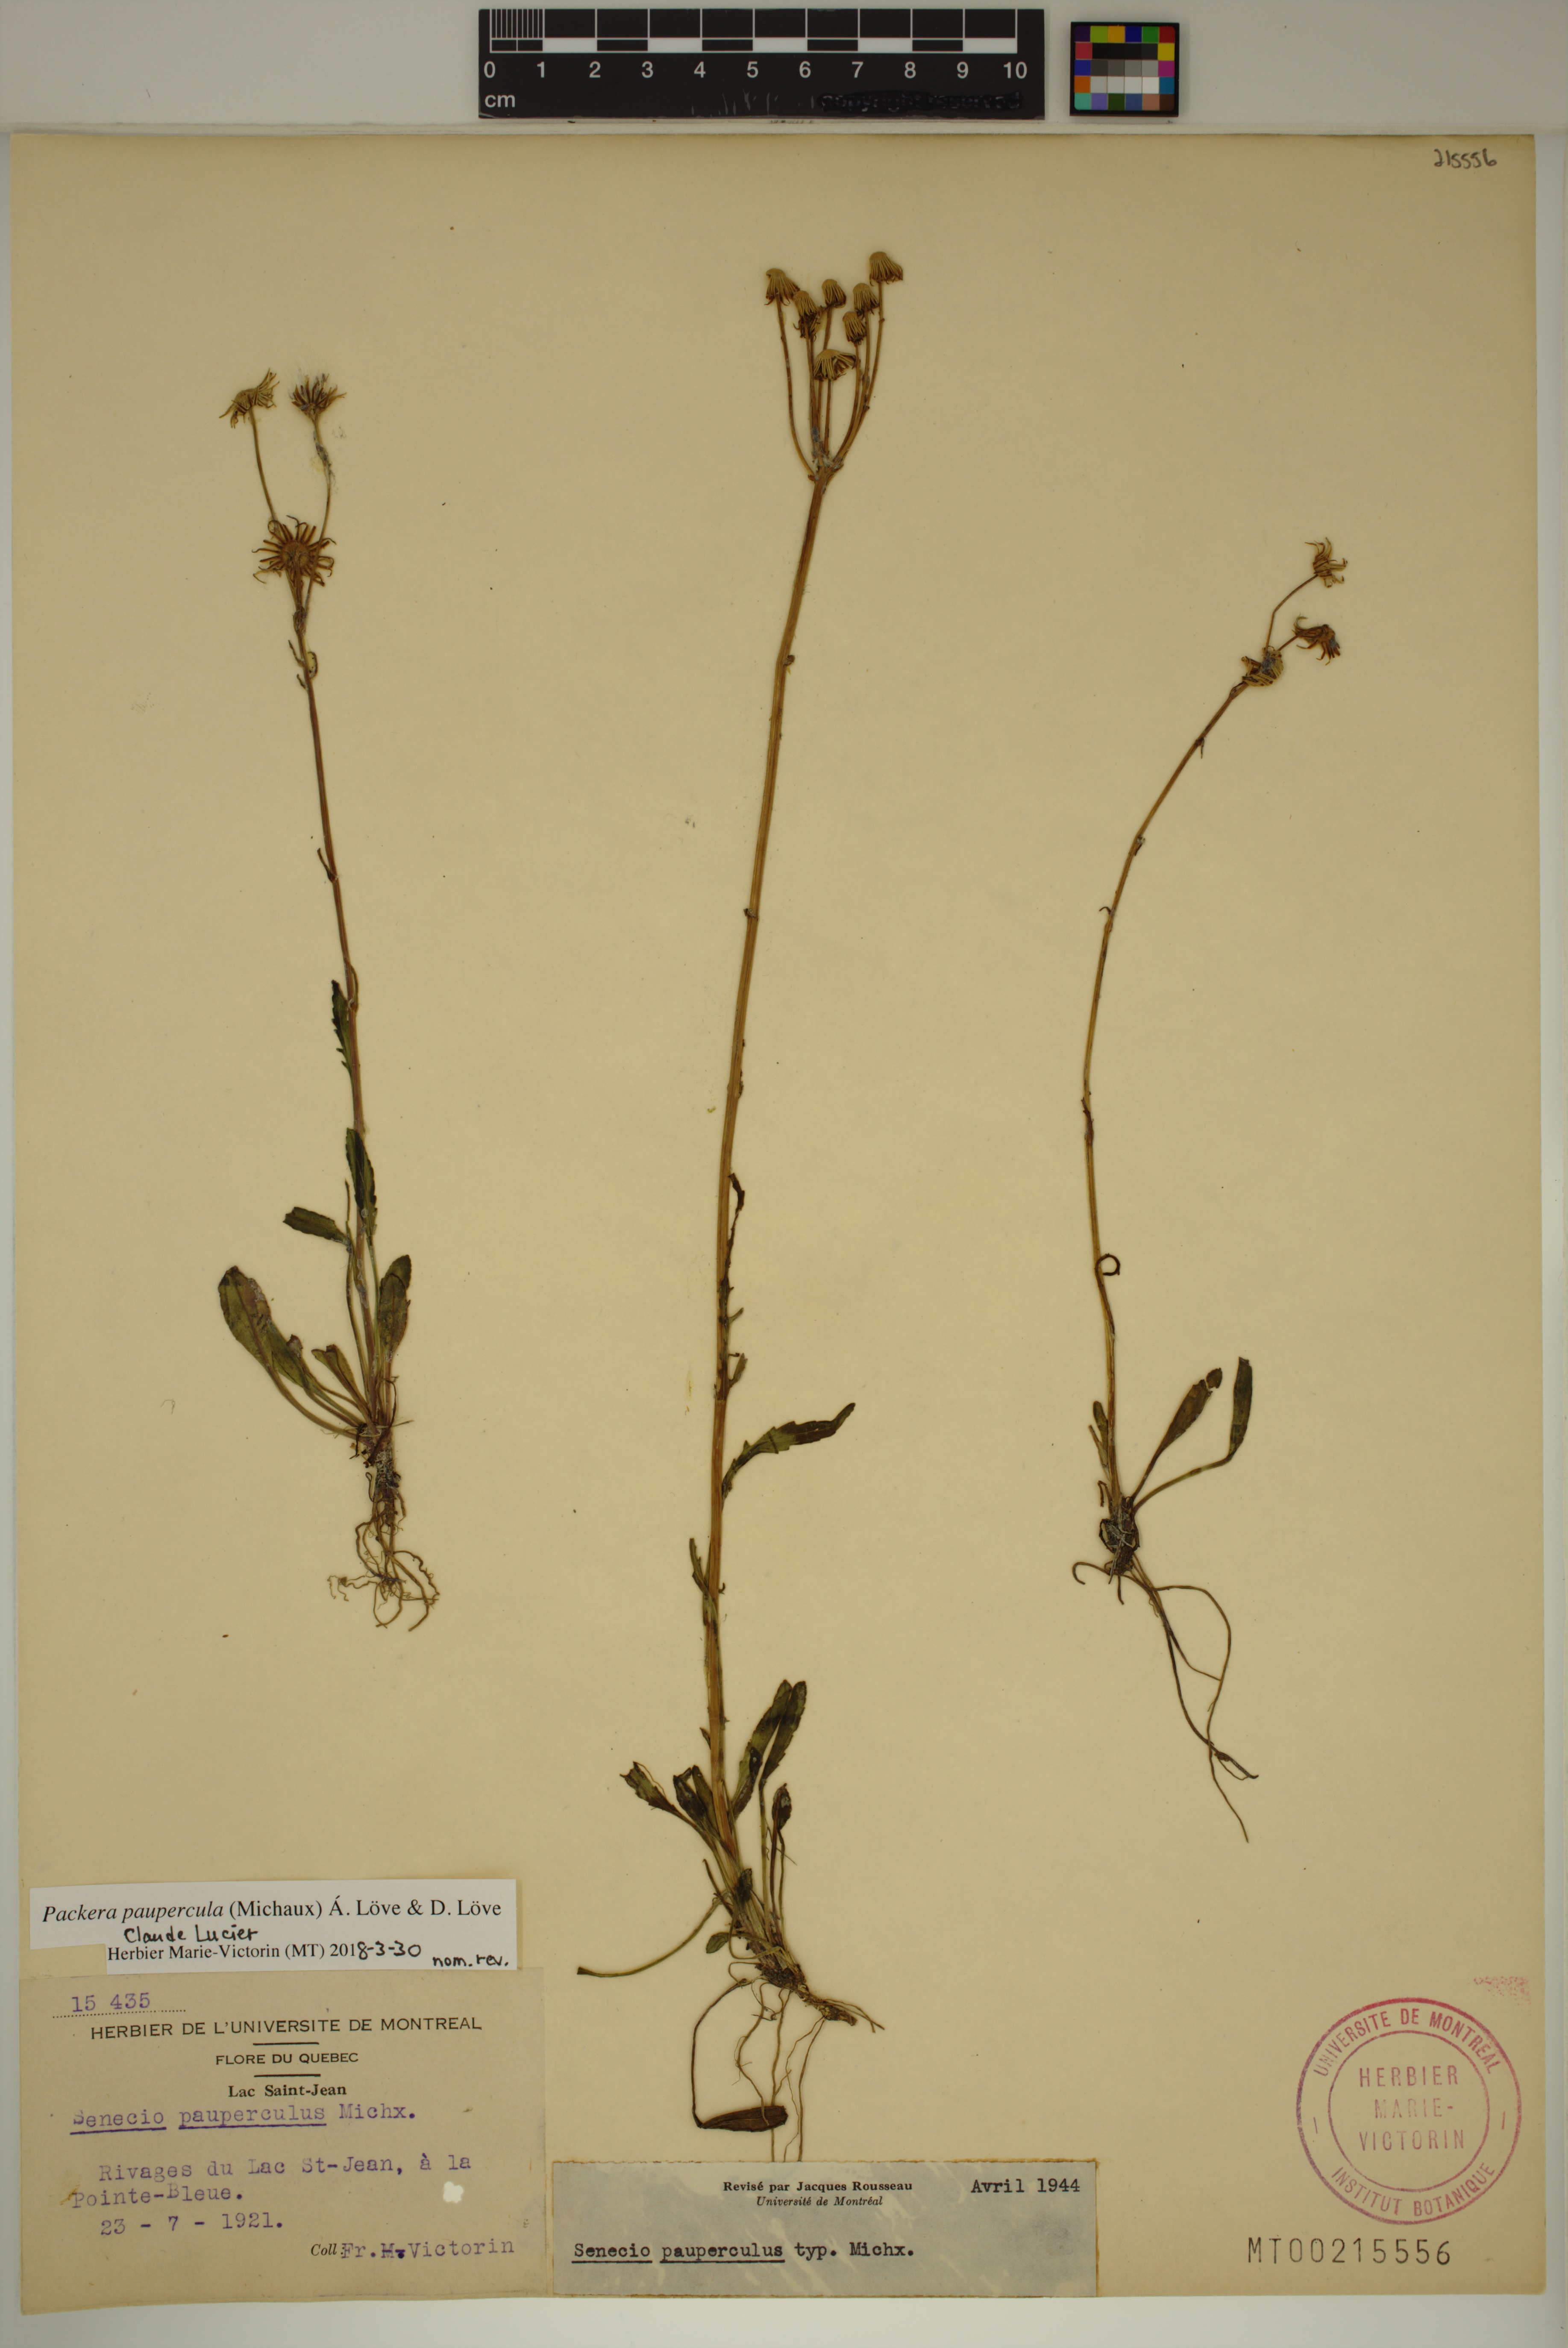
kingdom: Plantae
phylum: Tracheophyta
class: Magnoliopsida
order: Asterales
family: Asteraceae
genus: Packera
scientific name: Packera paupercula
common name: Balsam groundsel
